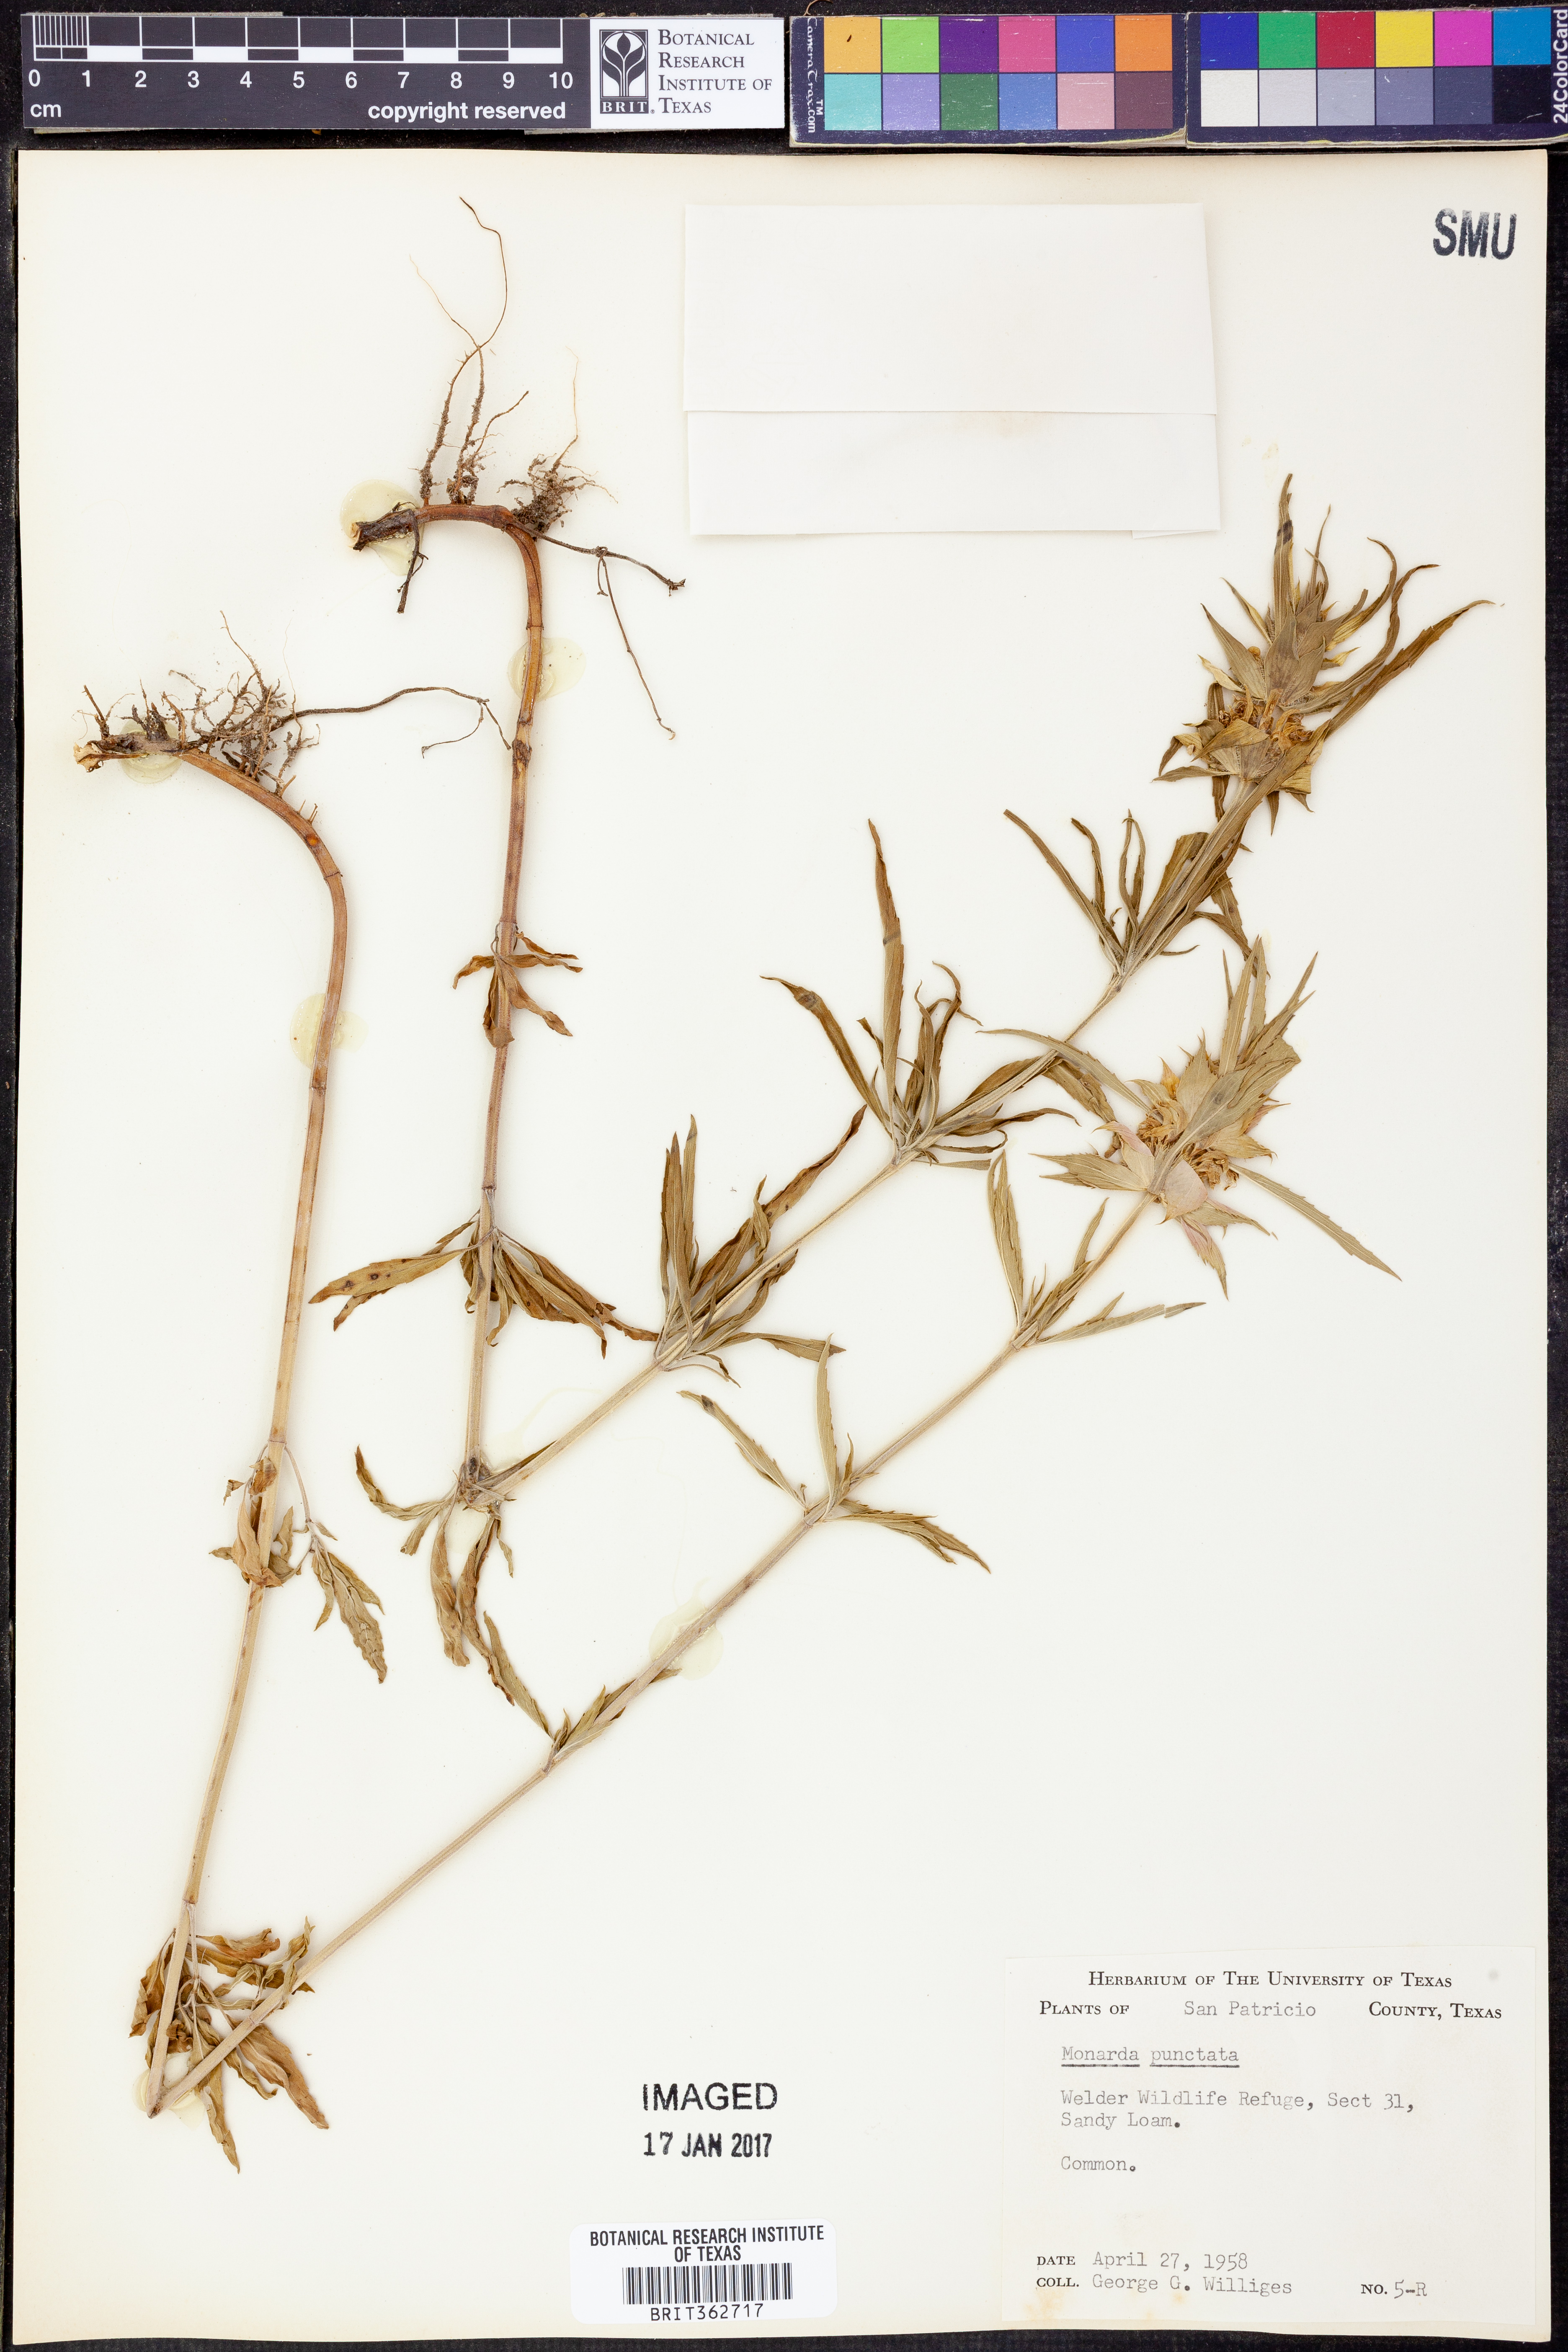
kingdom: Plantae
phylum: Tracheophyta
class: Magnoliopsida
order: Lamiales
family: Lamiaceae
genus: Monarda
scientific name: Monarda punctata
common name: Dotted monarda
